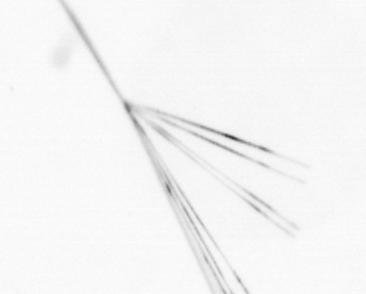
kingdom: Chromista
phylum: Ochrophyta
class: Bacillariophyceae
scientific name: Bacillariophyceae
